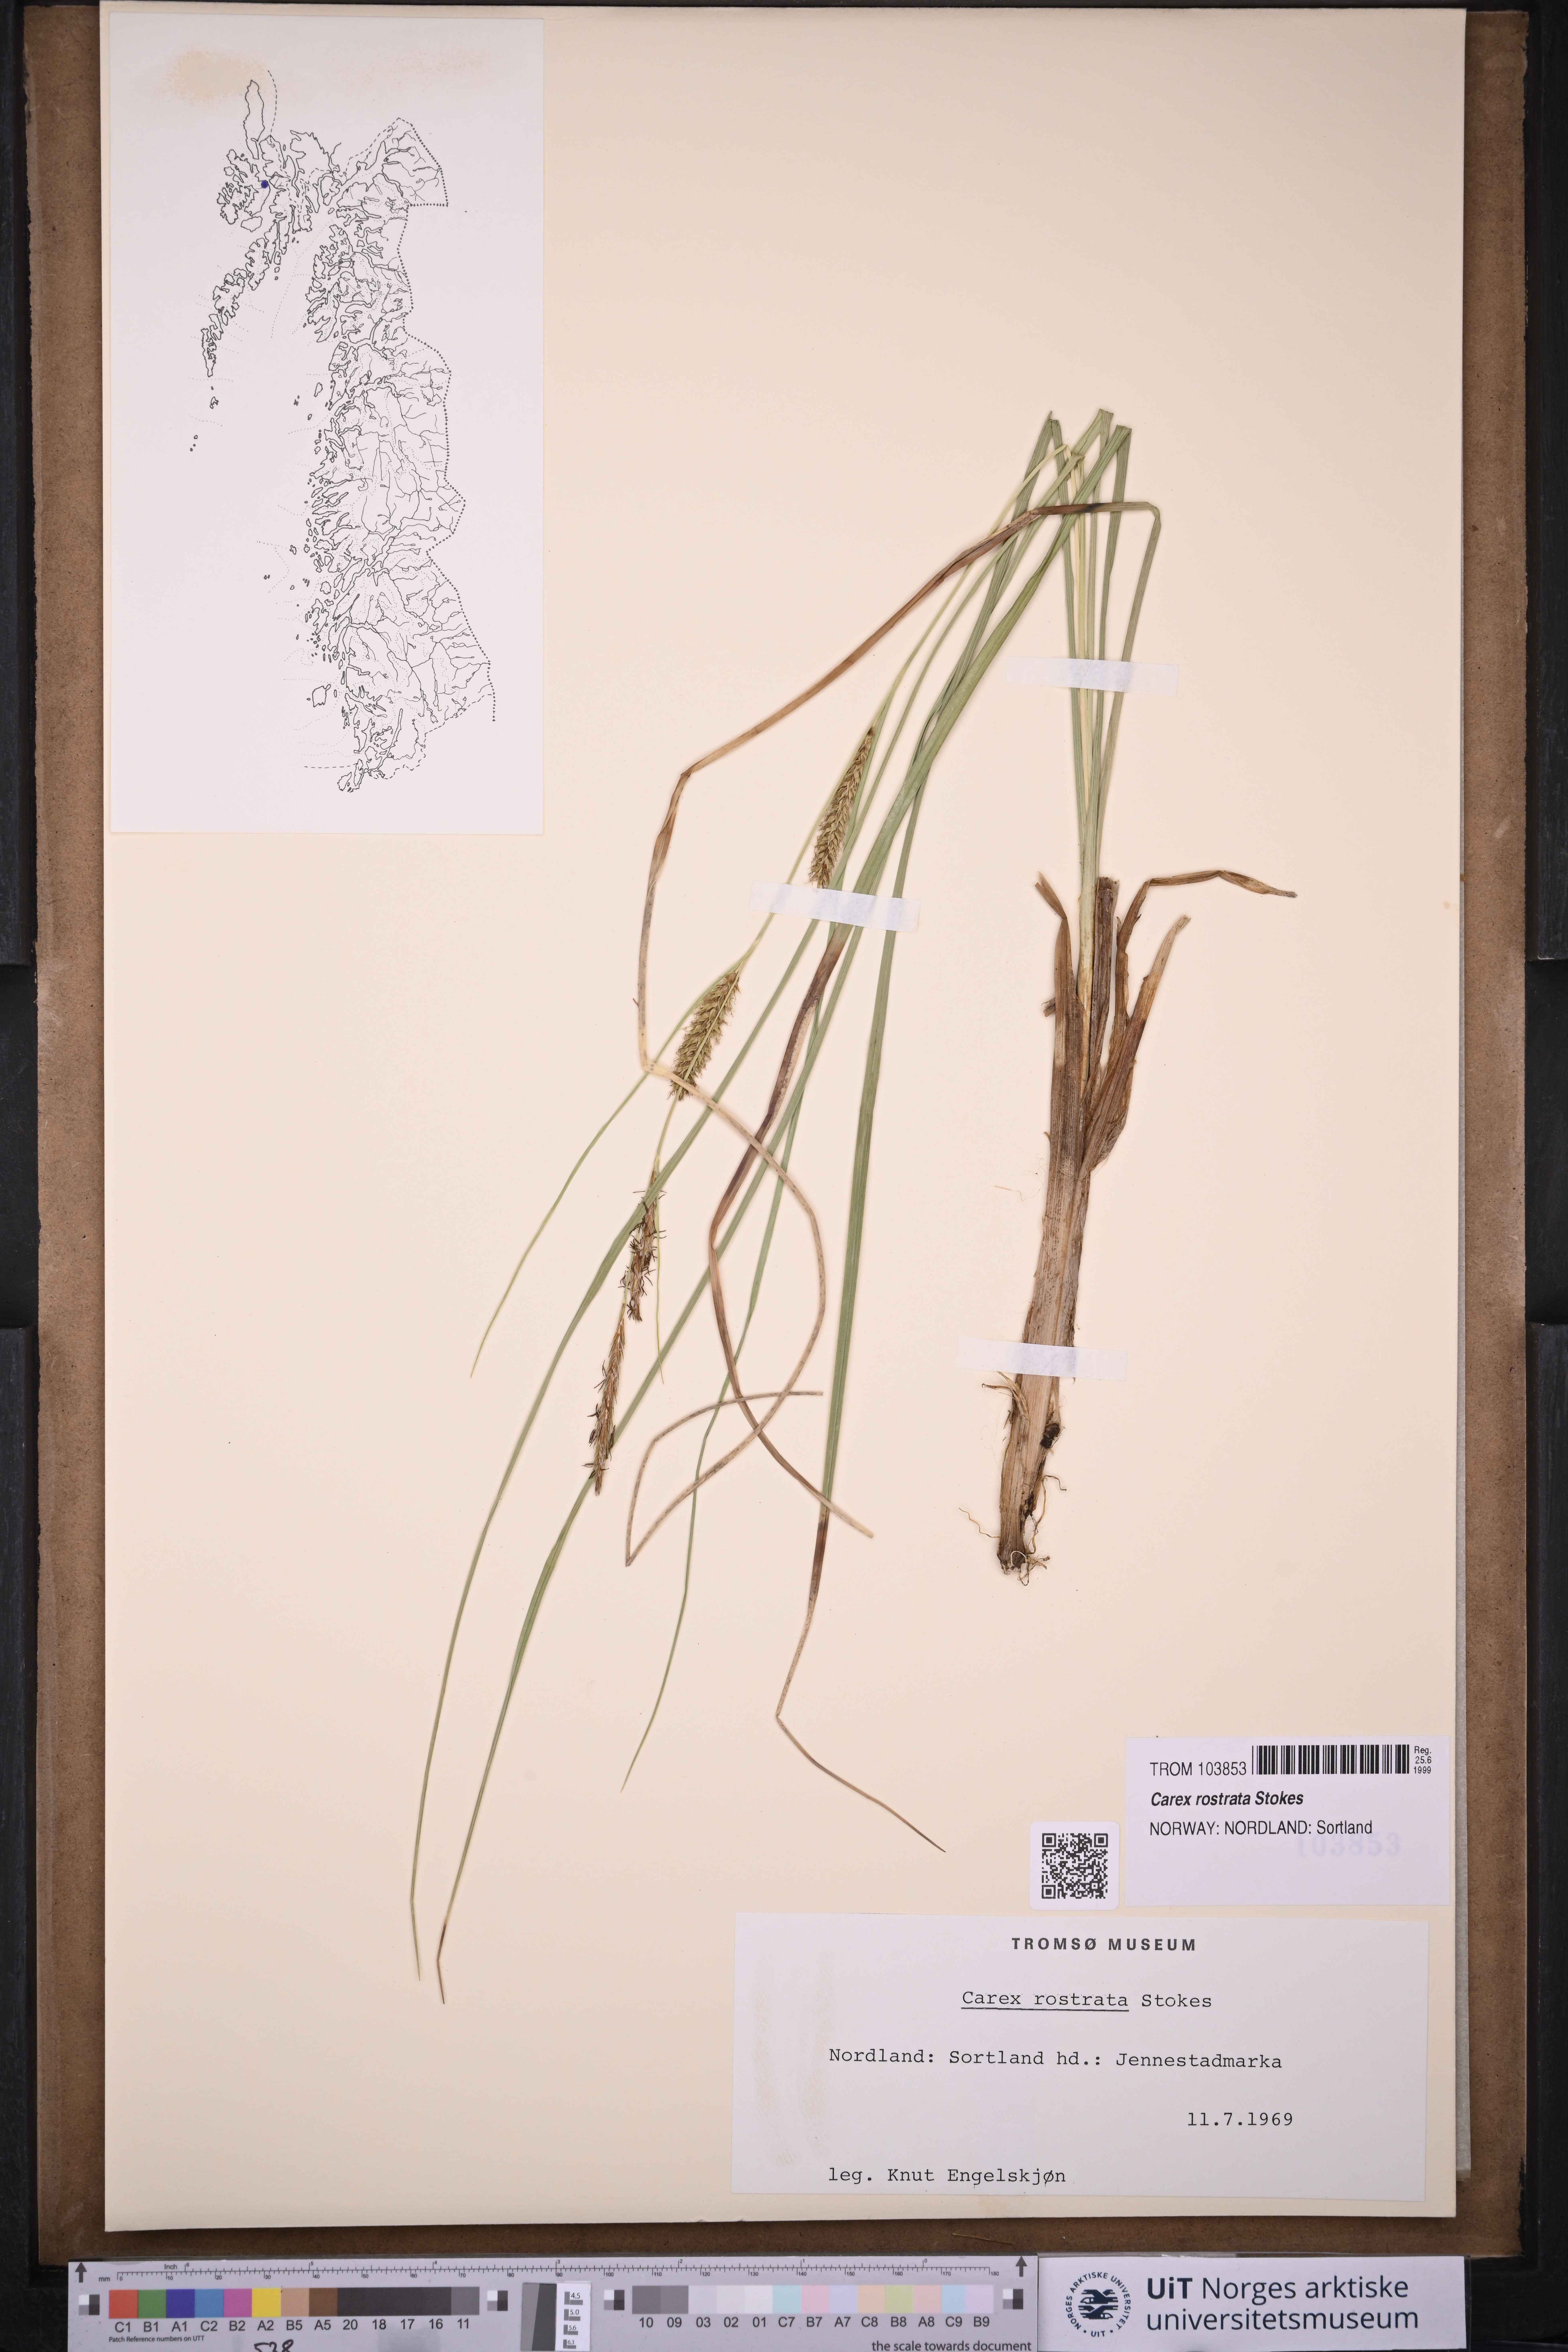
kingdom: Plantae
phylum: Tracheophyta
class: Liliopsida
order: Poales
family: Cyperaceae
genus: Carex
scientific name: Carex rostrata
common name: Bottle sedge
